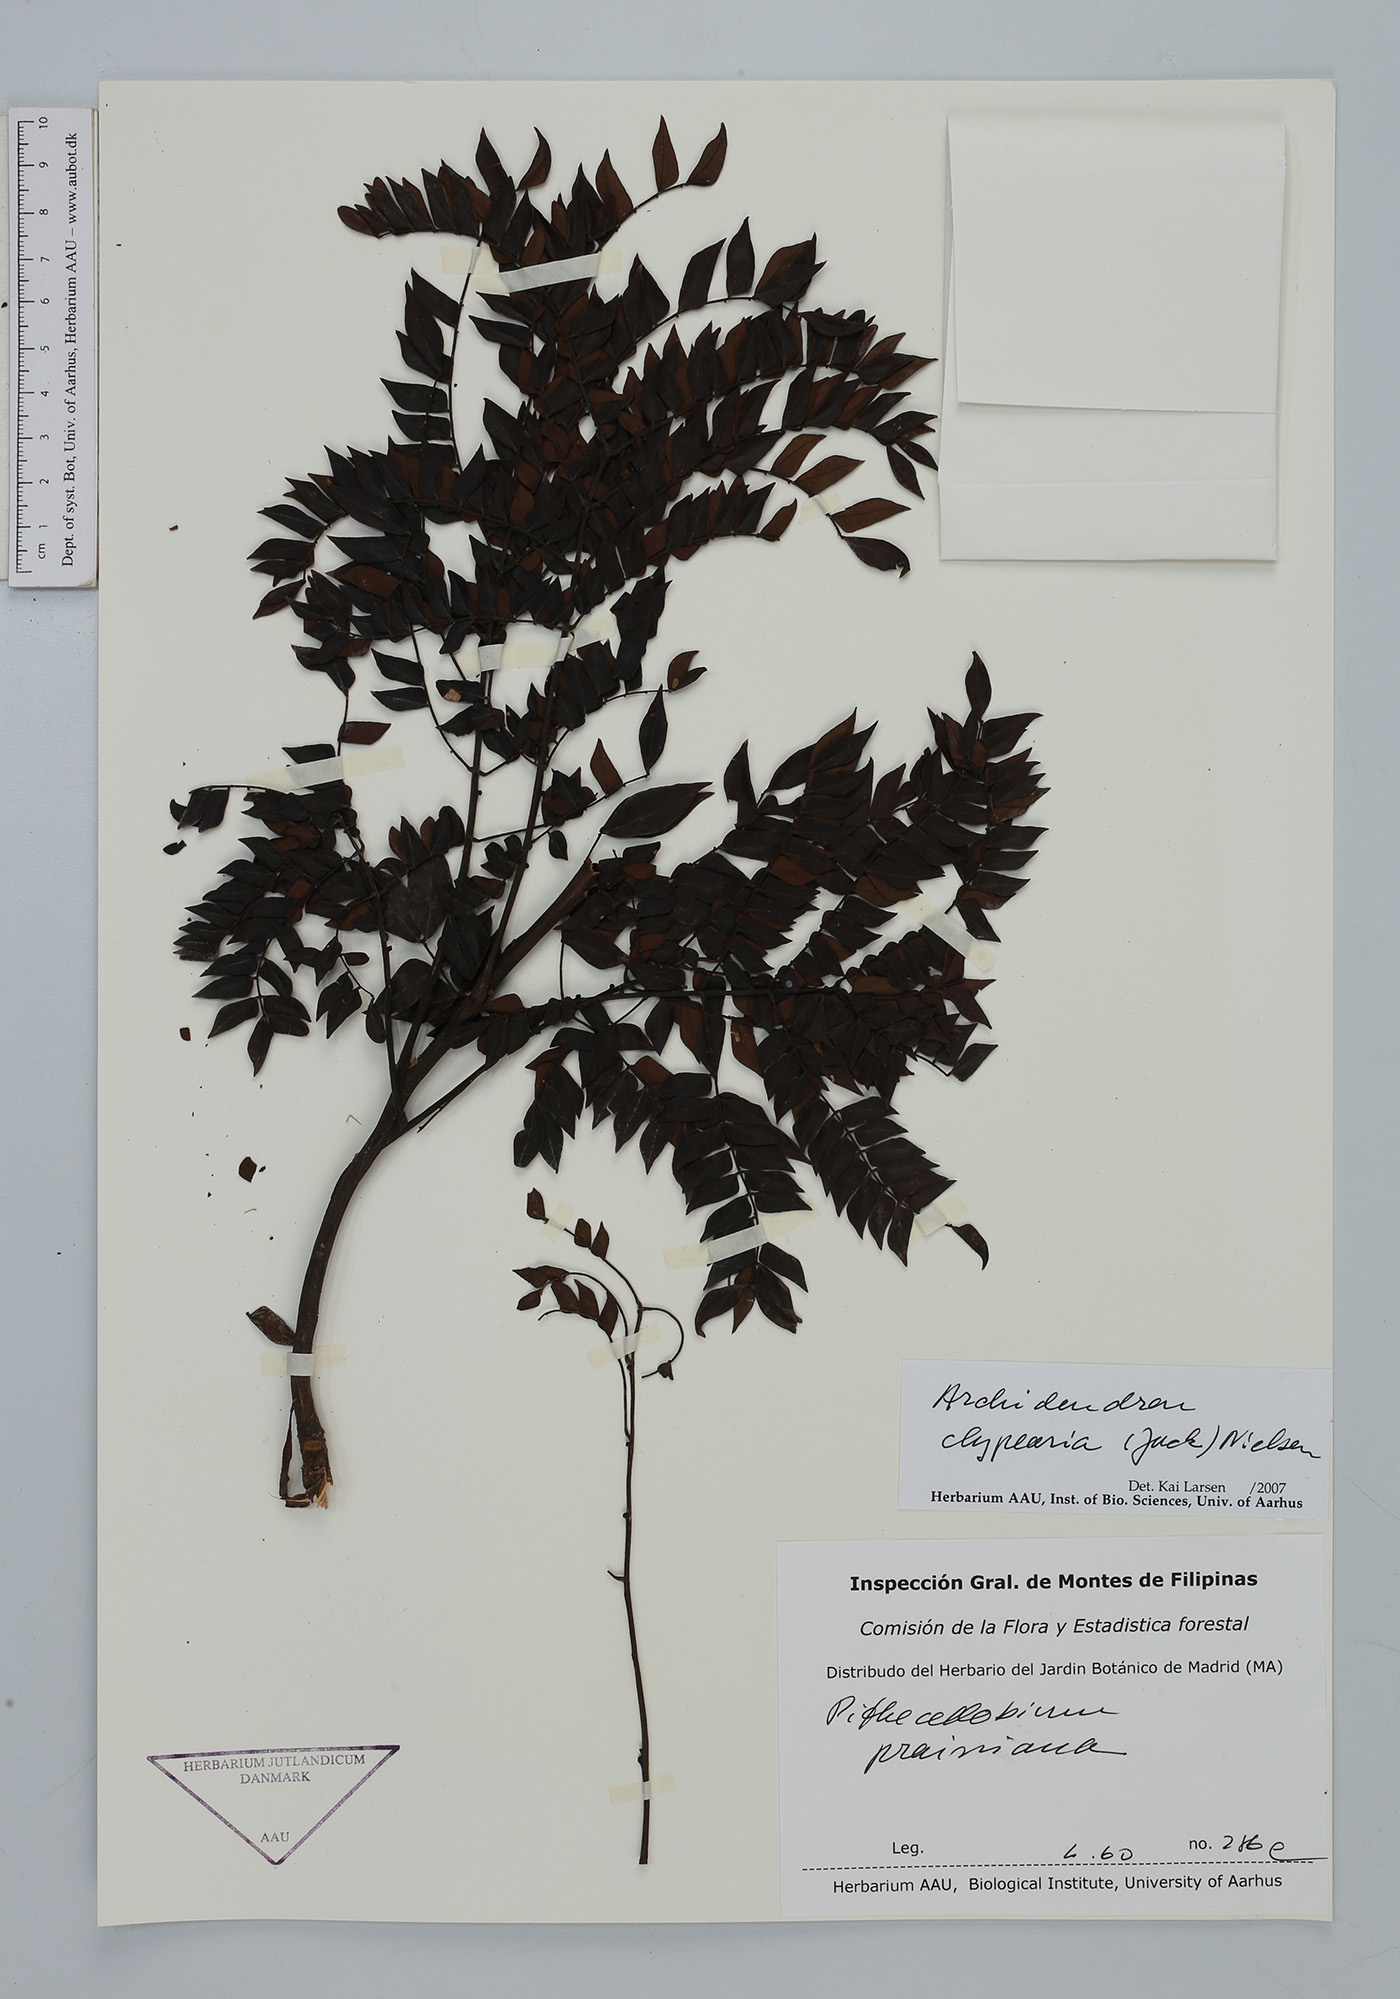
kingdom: Plantae
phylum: Tracheophyta
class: Magnoliopsida
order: Fabales
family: Fabaceae
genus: Archidendron
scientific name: Archidendron clypearia
